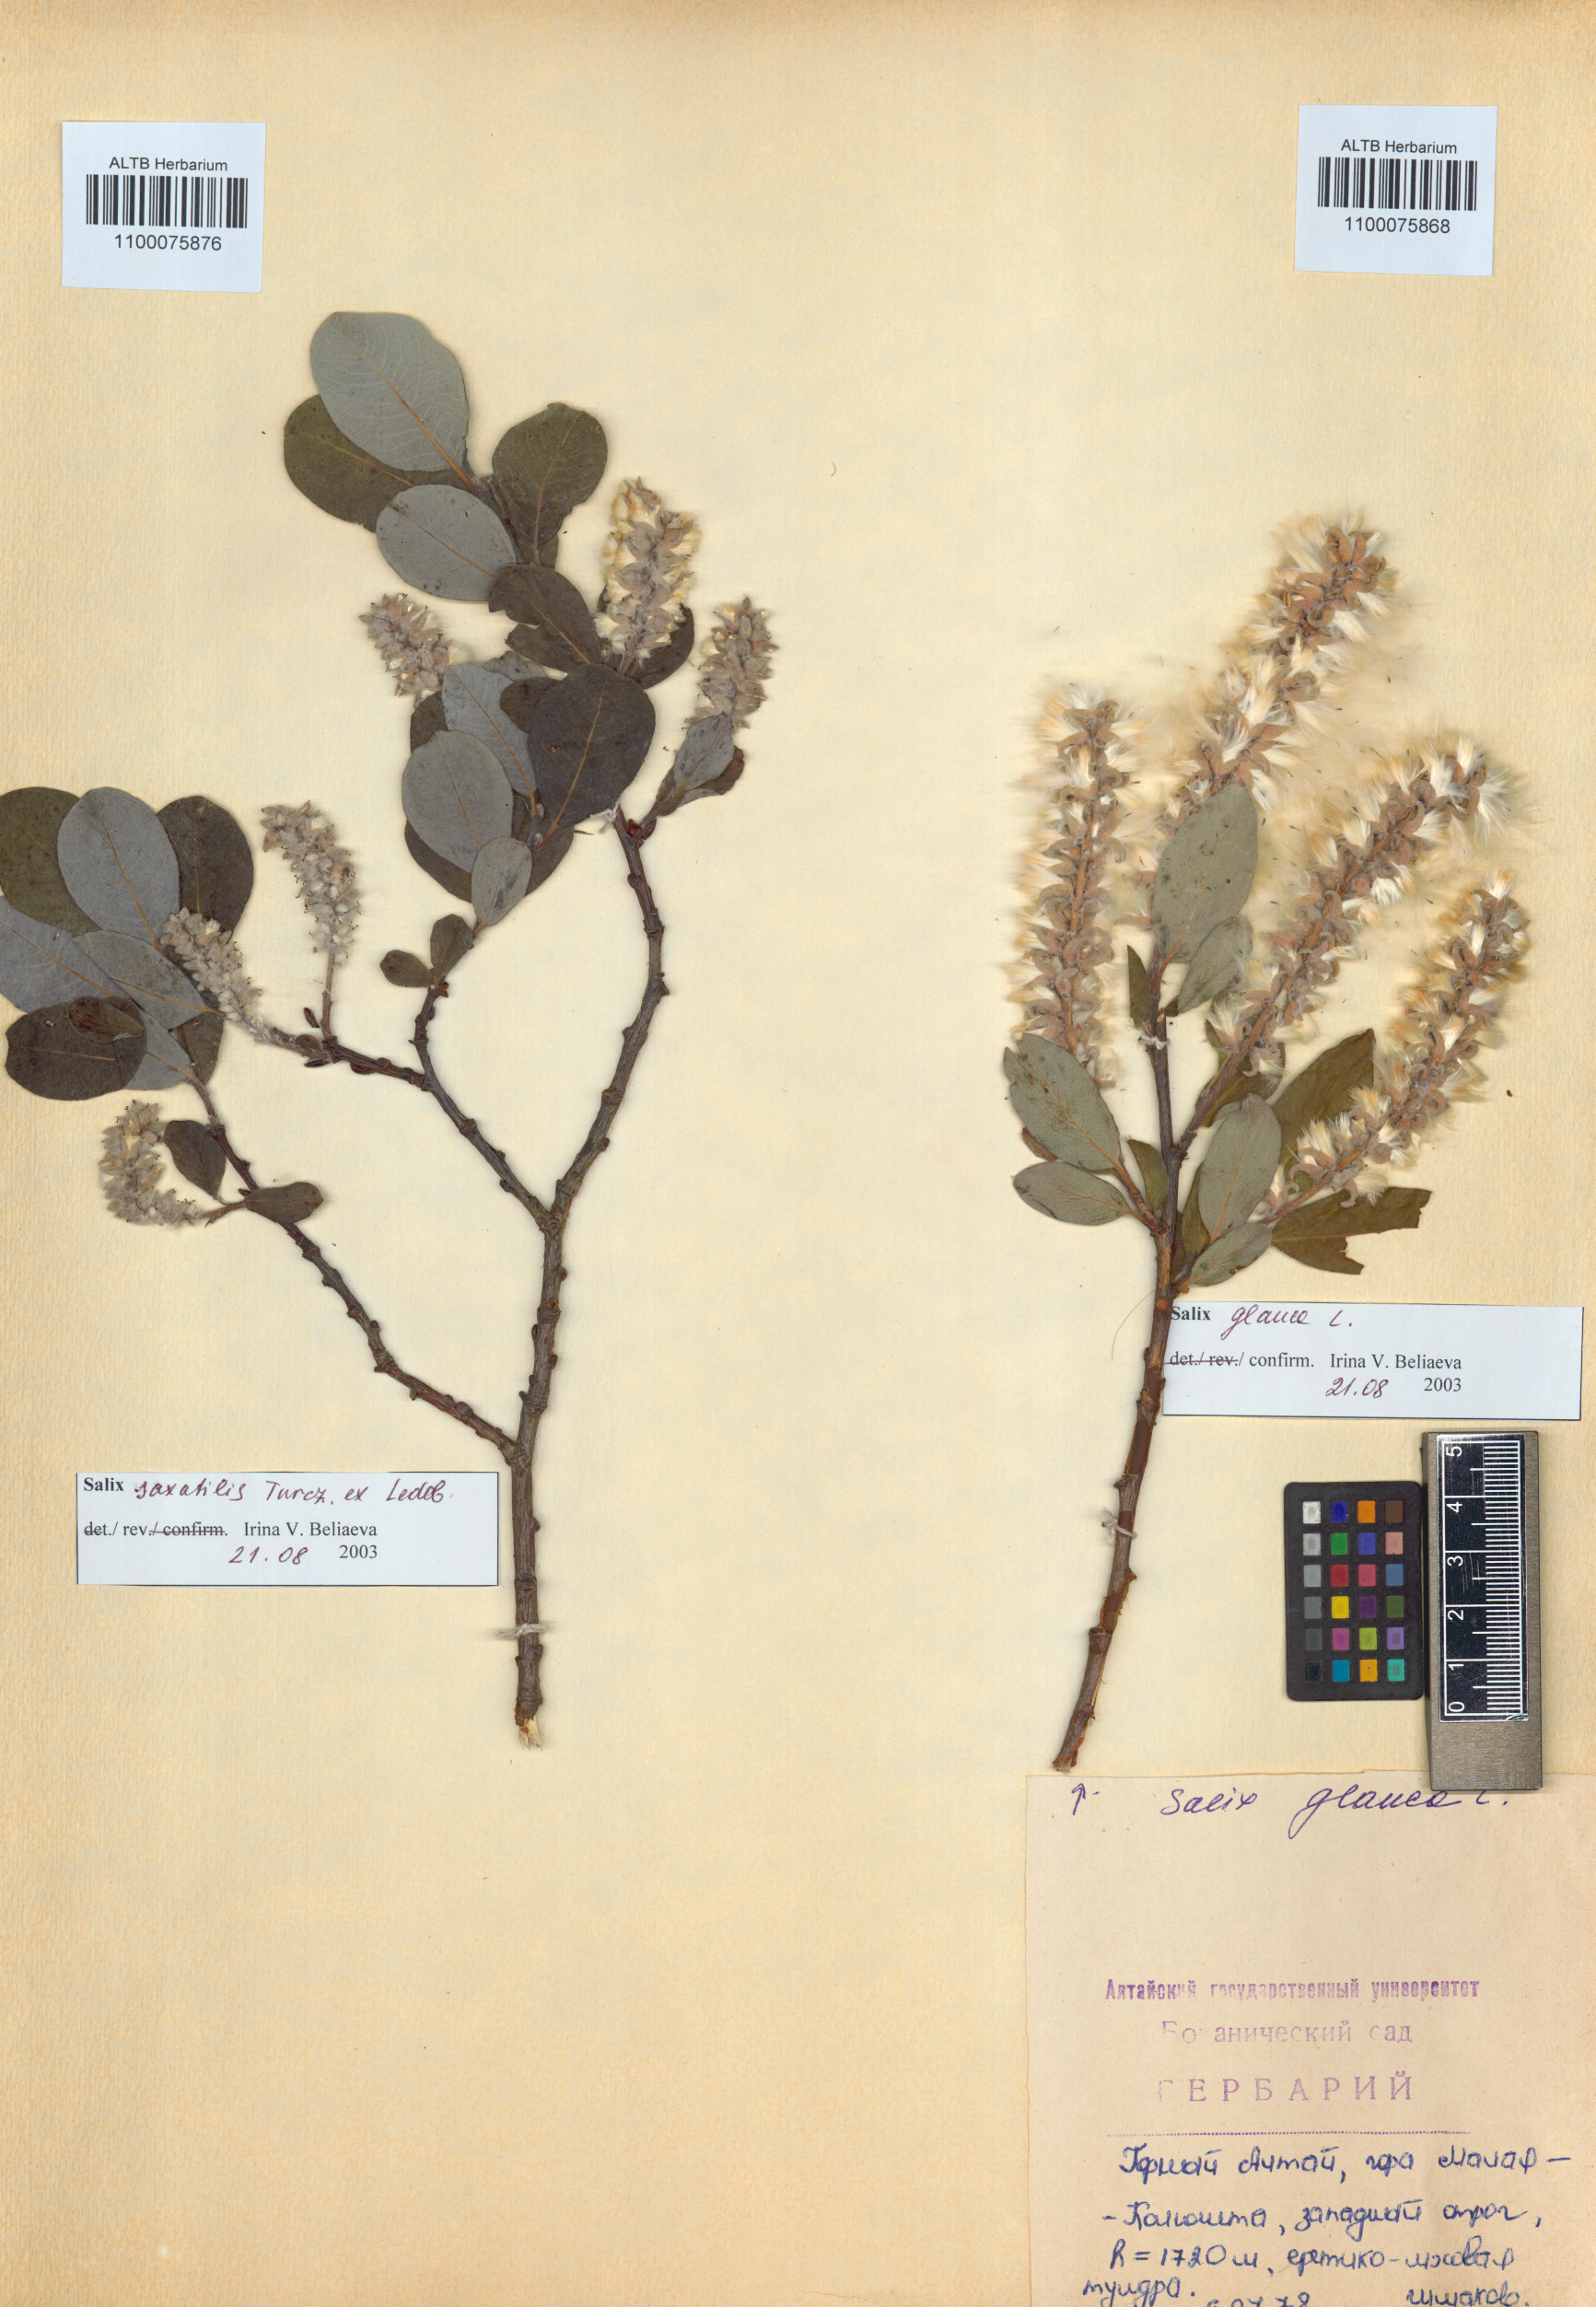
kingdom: Plantae
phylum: Tracheophyta
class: Magnoliopsida
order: Malpighiales
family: Salicaceae
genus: Salix
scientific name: Salix glauca
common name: Glaucous willow
